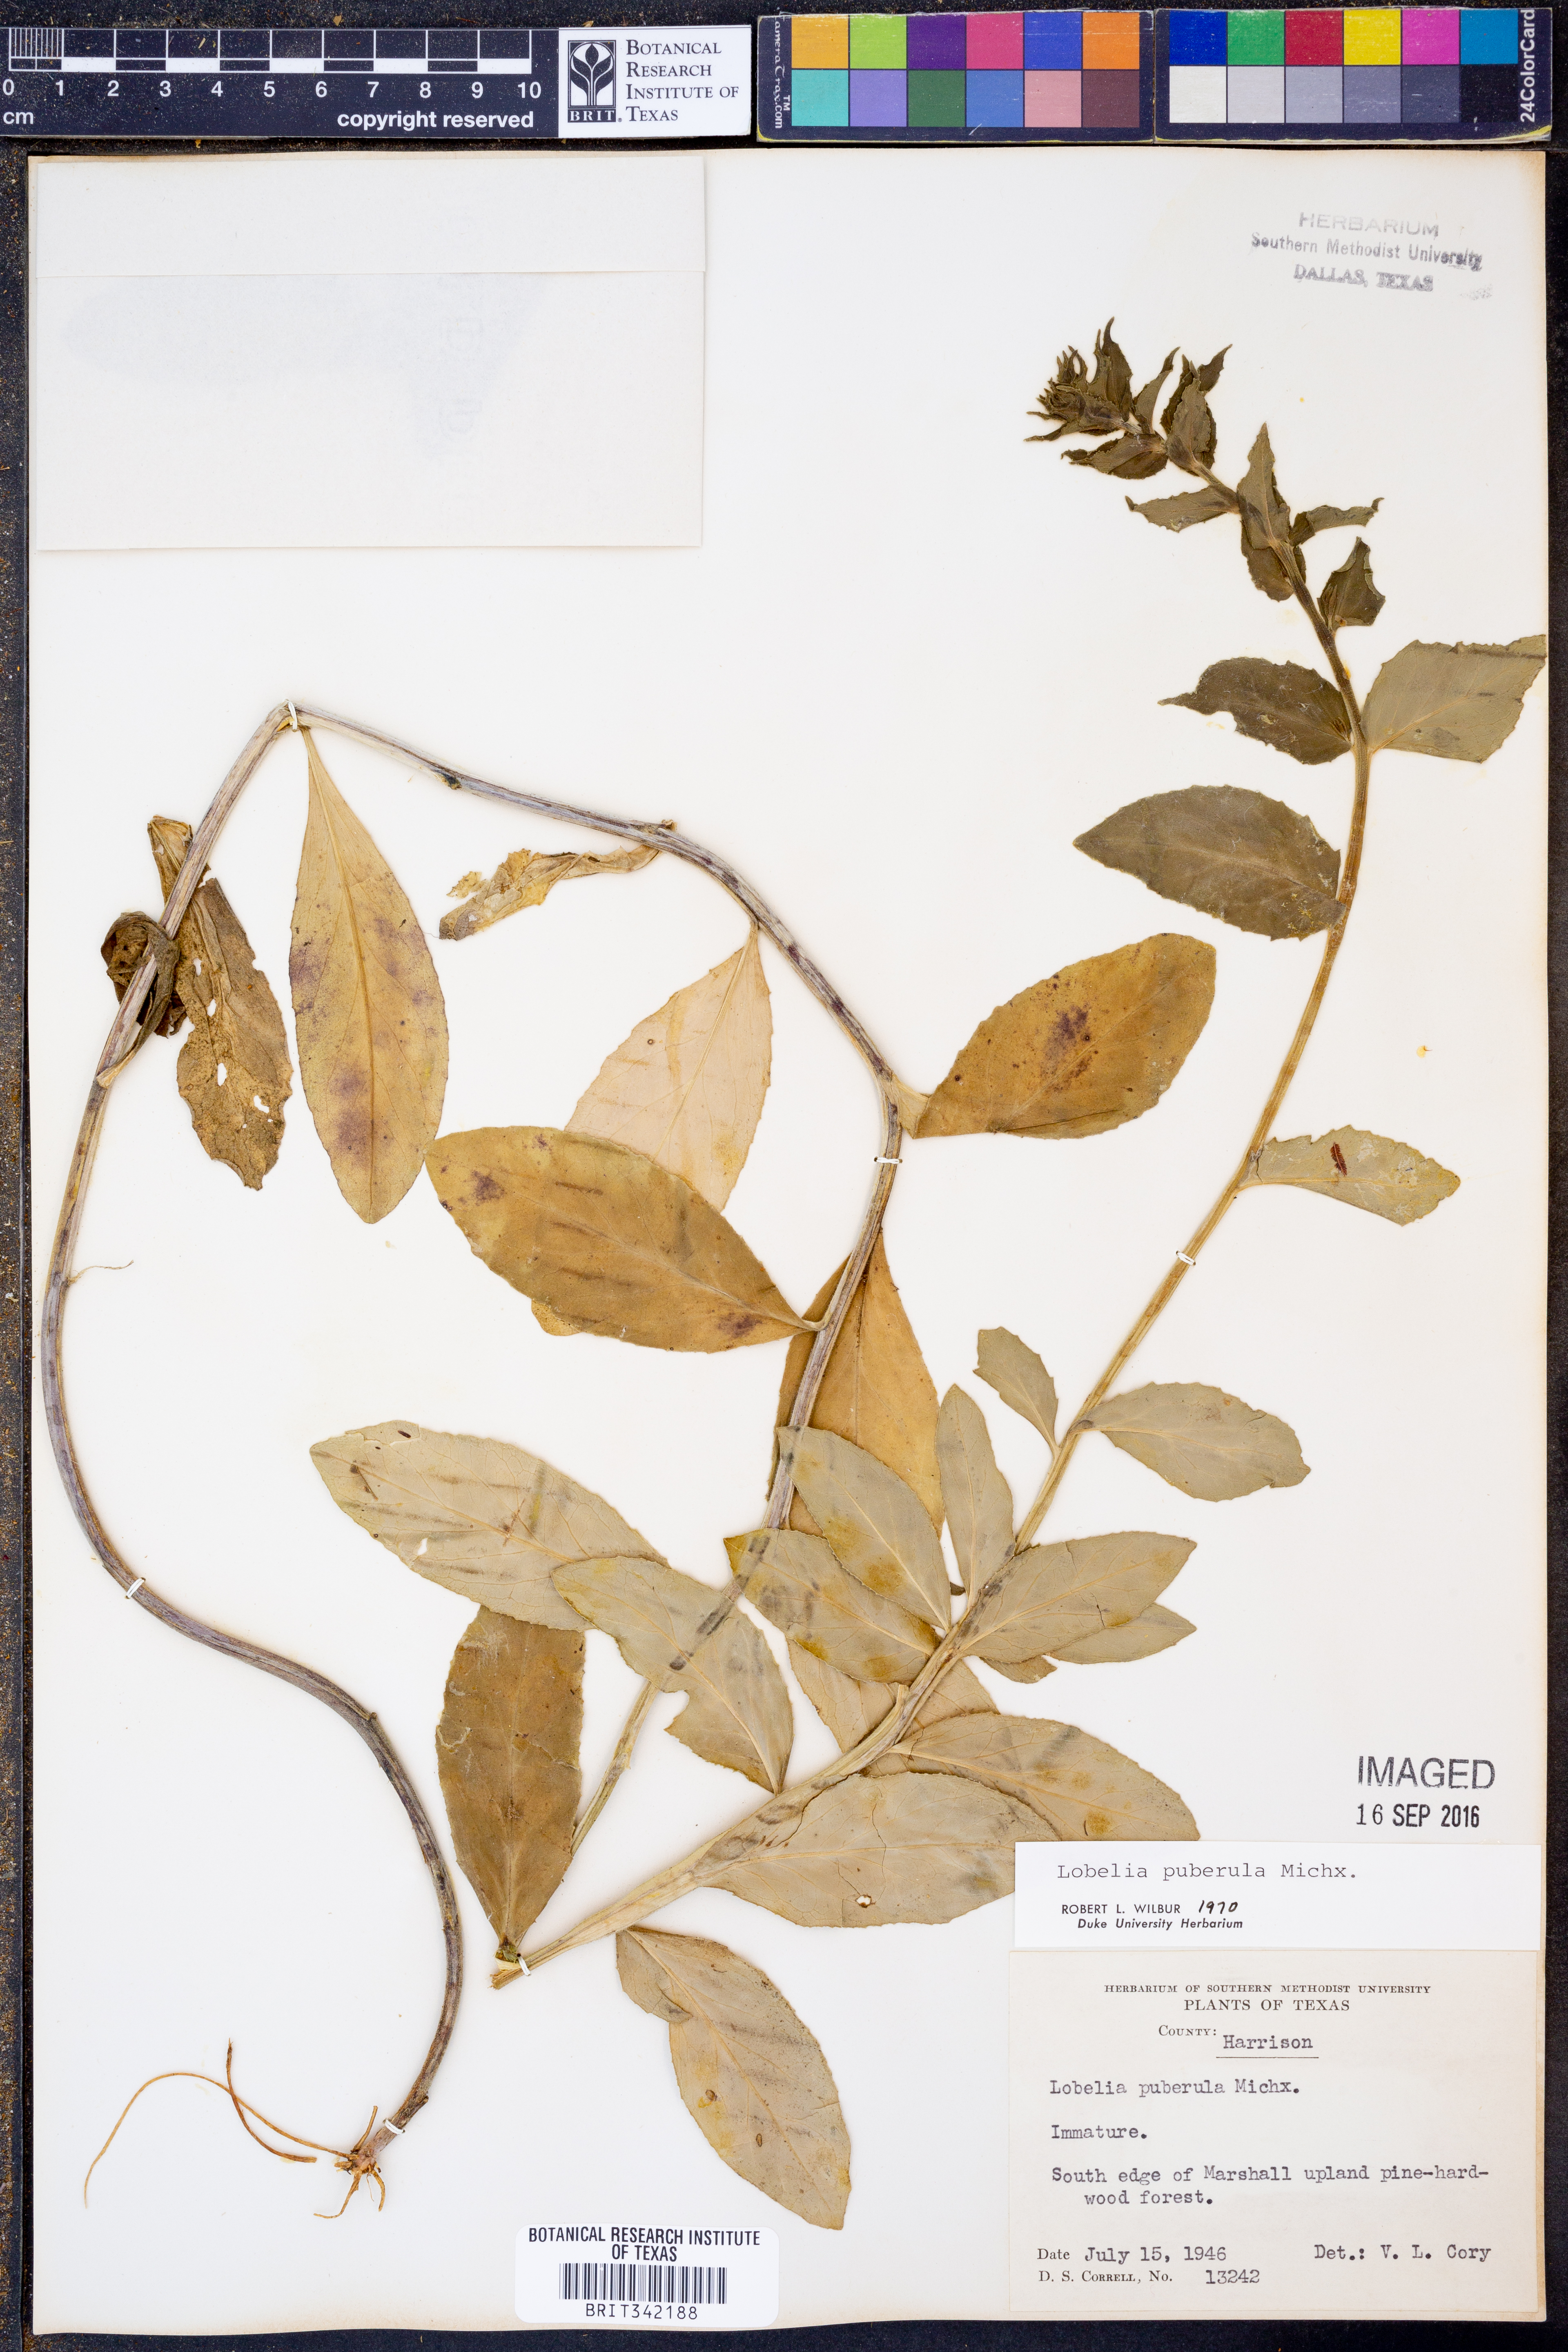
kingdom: Plantae
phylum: Tracheophyta
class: Magnoliopsida
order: Asterales
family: Campanulaceae
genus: Lobelia
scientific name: Lobelia puberula
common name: Purple dewdrop
